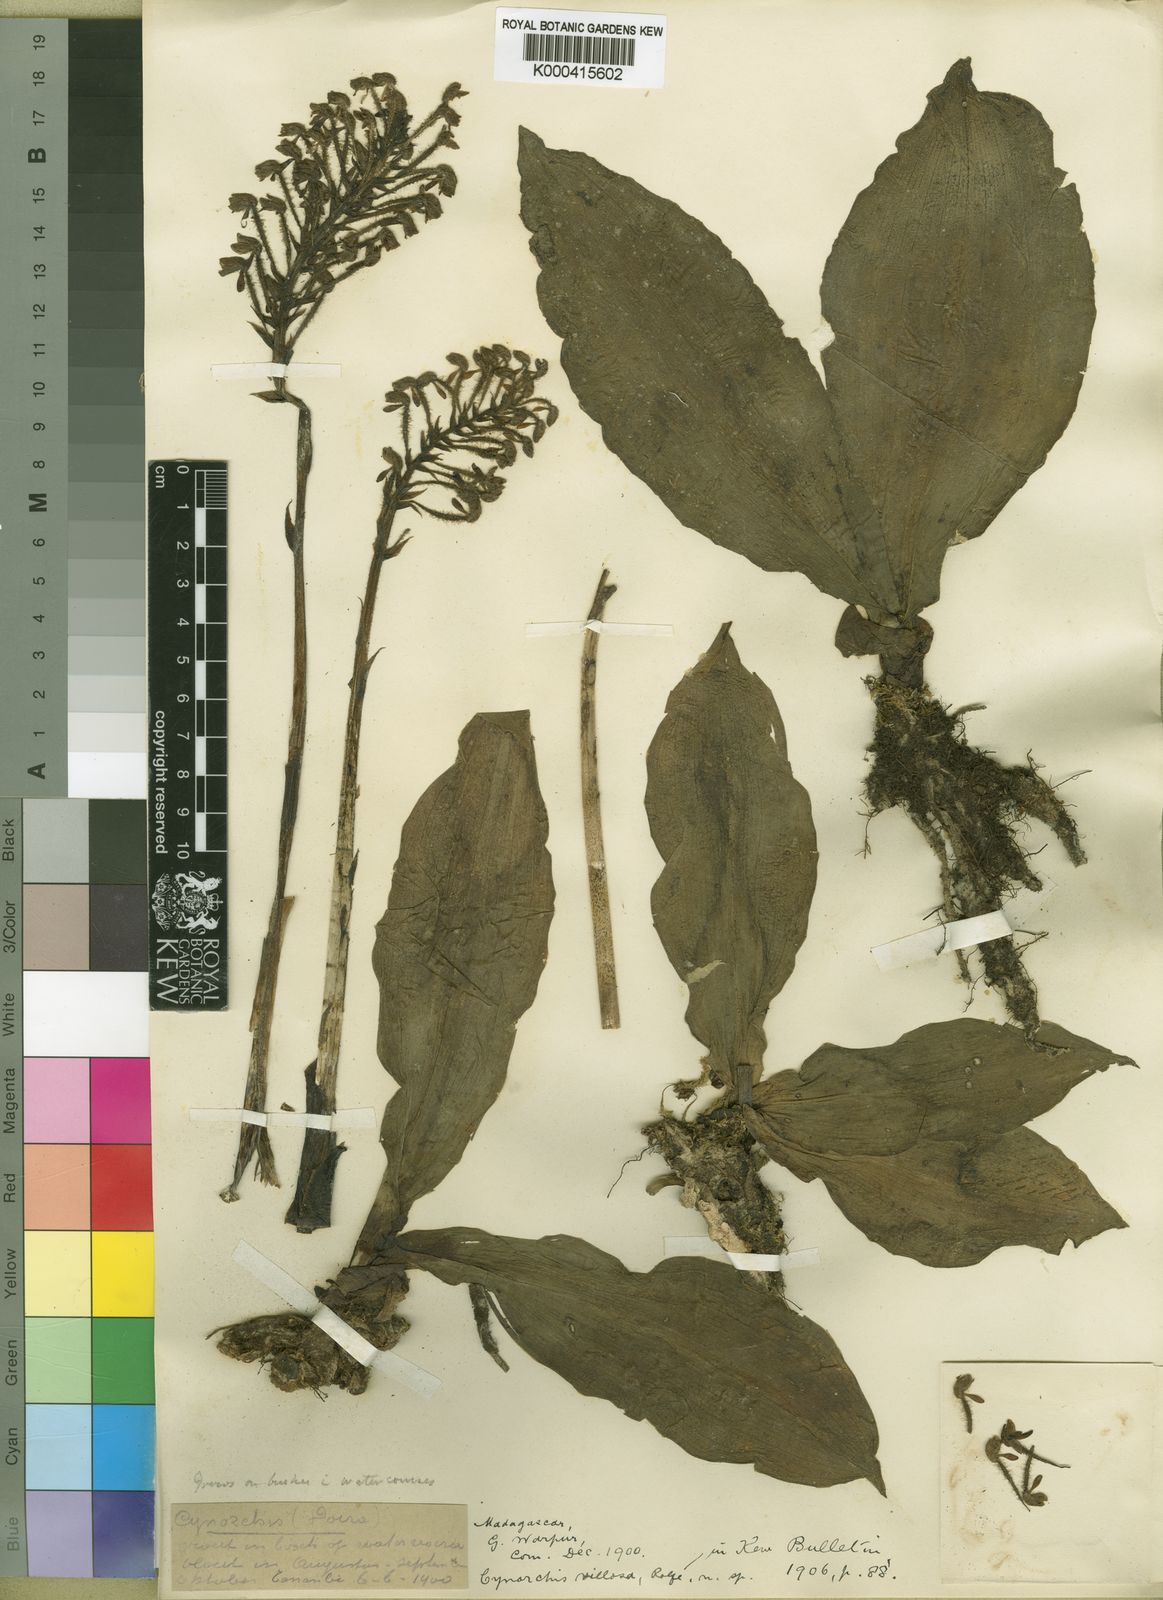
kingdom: Plantae
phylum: Tracheophyta
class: Liliopsida
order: Asparagales
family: Orchidaceae
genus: Cynorkis
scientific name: Cynorkis villosa
